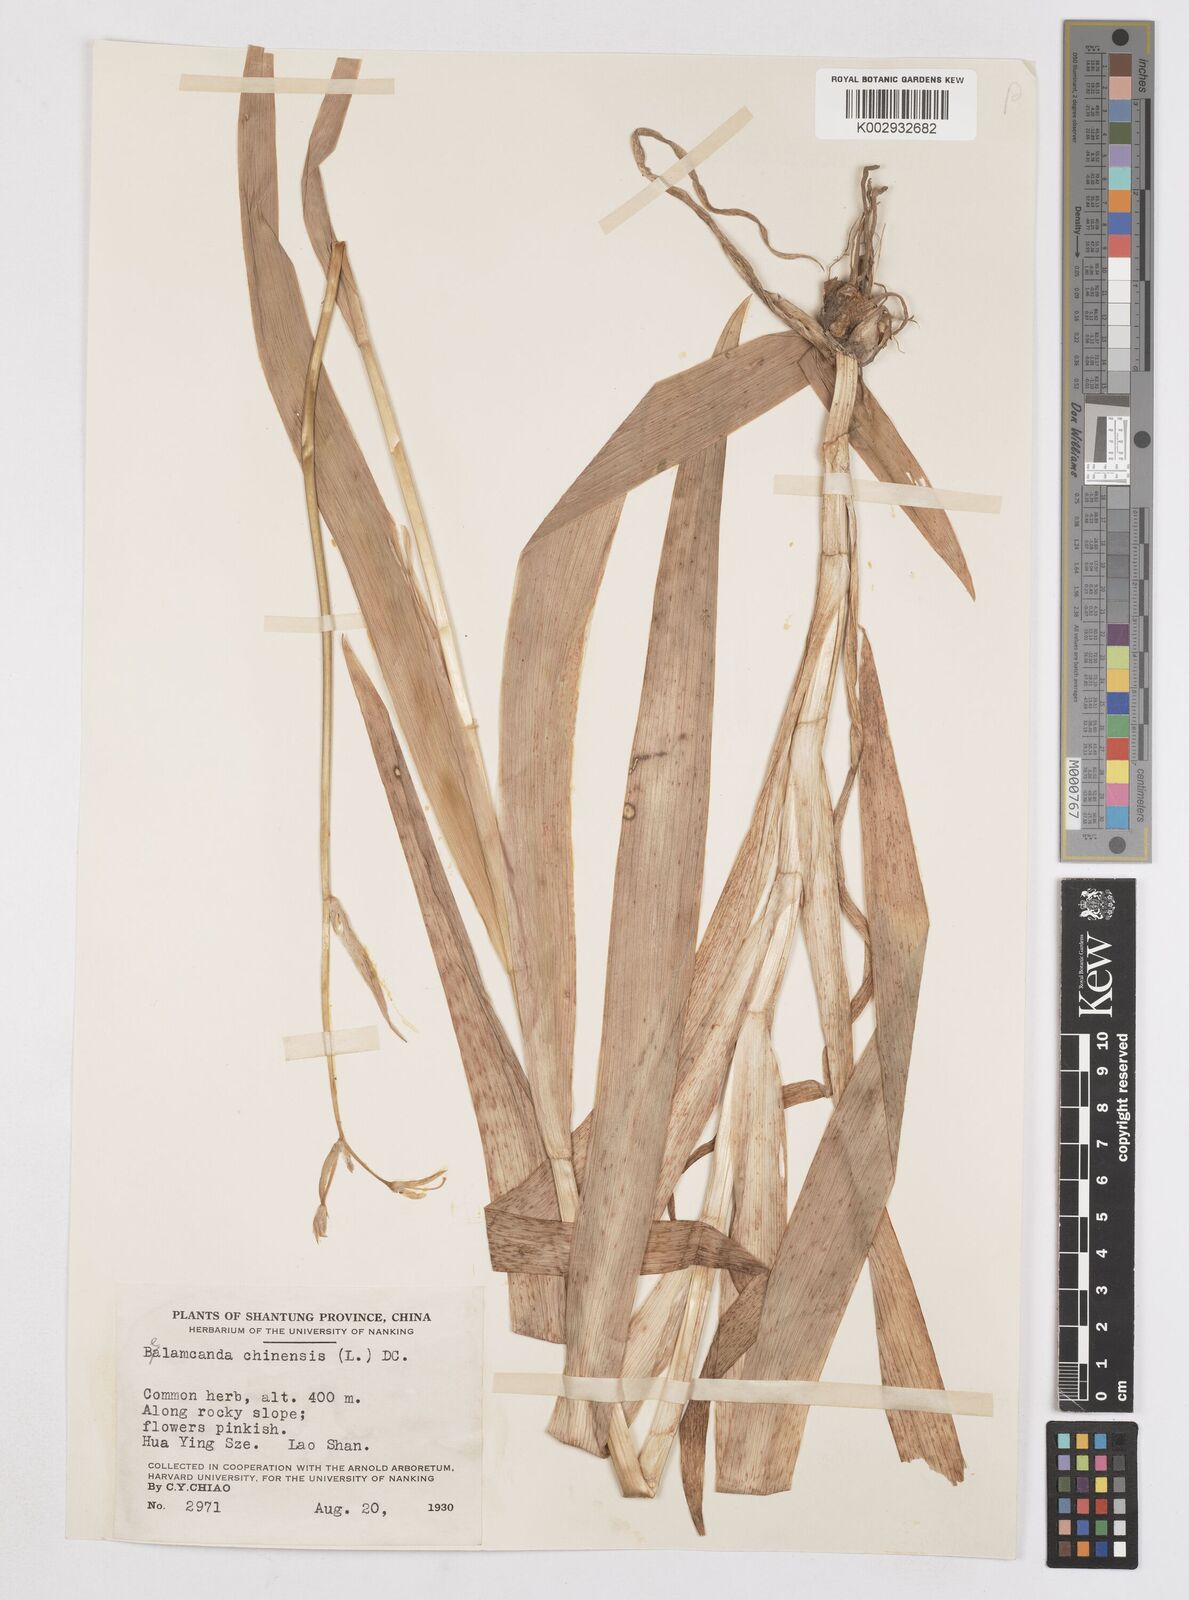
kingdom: Plantae
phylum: Tracheophyta
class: Liliopsida
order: Asparagales
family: Iridaceae
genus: Iris
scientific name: Iris
